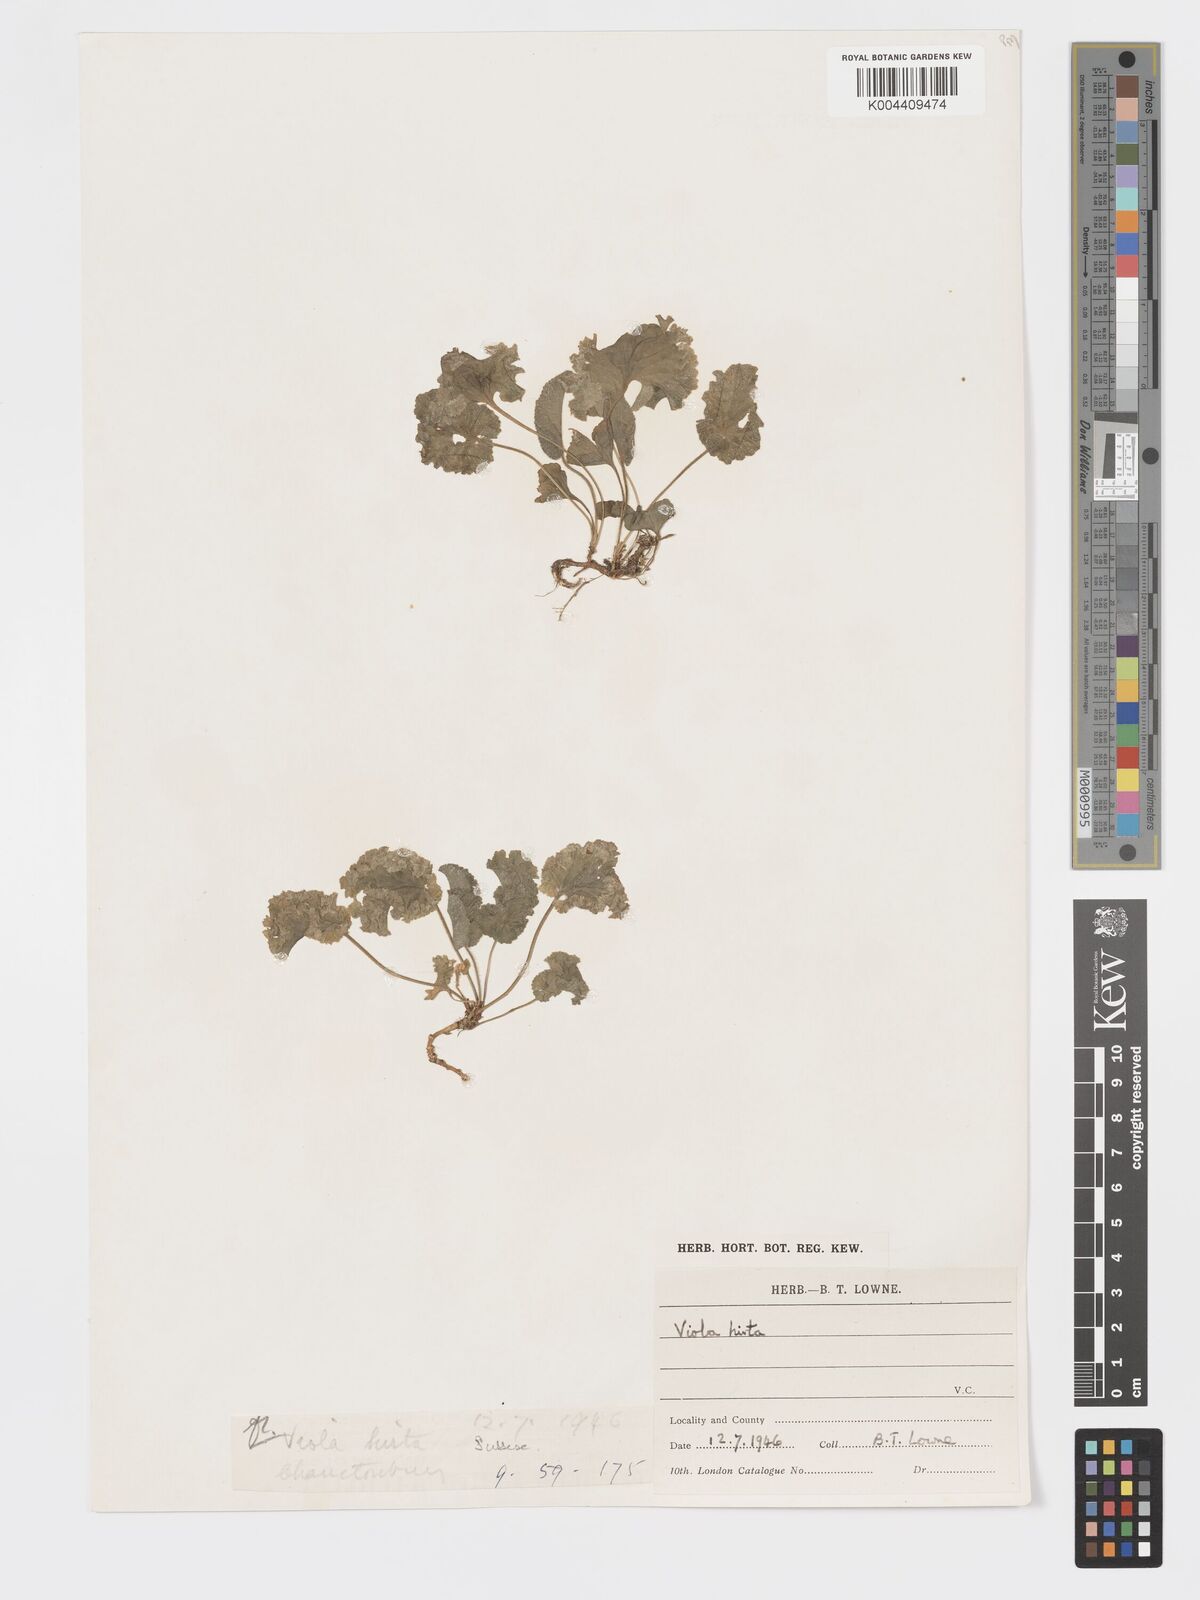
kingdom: Plantae
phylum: Tracheophyta
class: Magnoliopsida
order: Malpighiales
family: Violaceae
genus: Viola
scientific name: Viola
